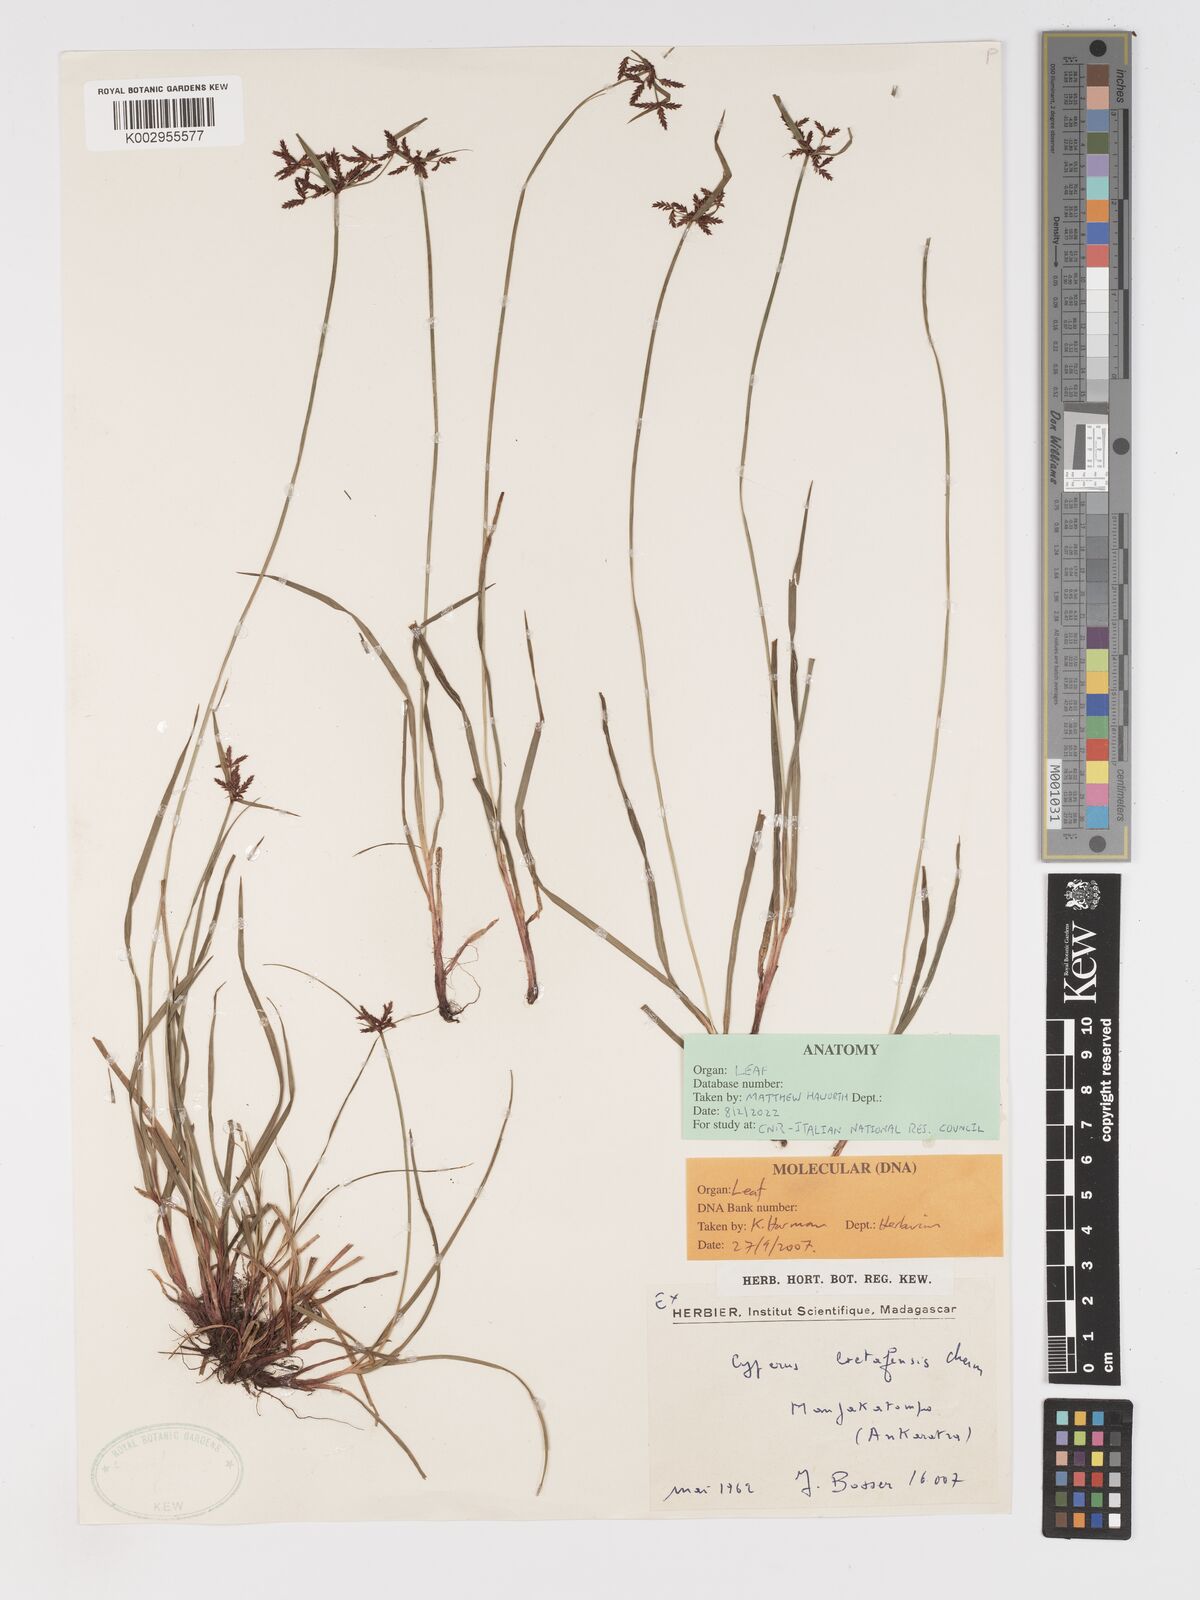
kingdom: Plantae
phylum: Tracheophyta
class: Liliopsida
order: Poales
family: Cyperaceae
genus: Cyperus
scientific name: Cyperus betafensis
